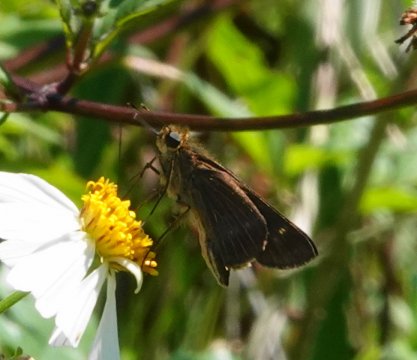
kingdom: Animalia
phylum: Arthropoda
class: Insecta
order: Lepidoptera
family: Hesperiidae
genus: Panoquina
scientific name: Panoquina ocola
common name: Ocola Skipper
